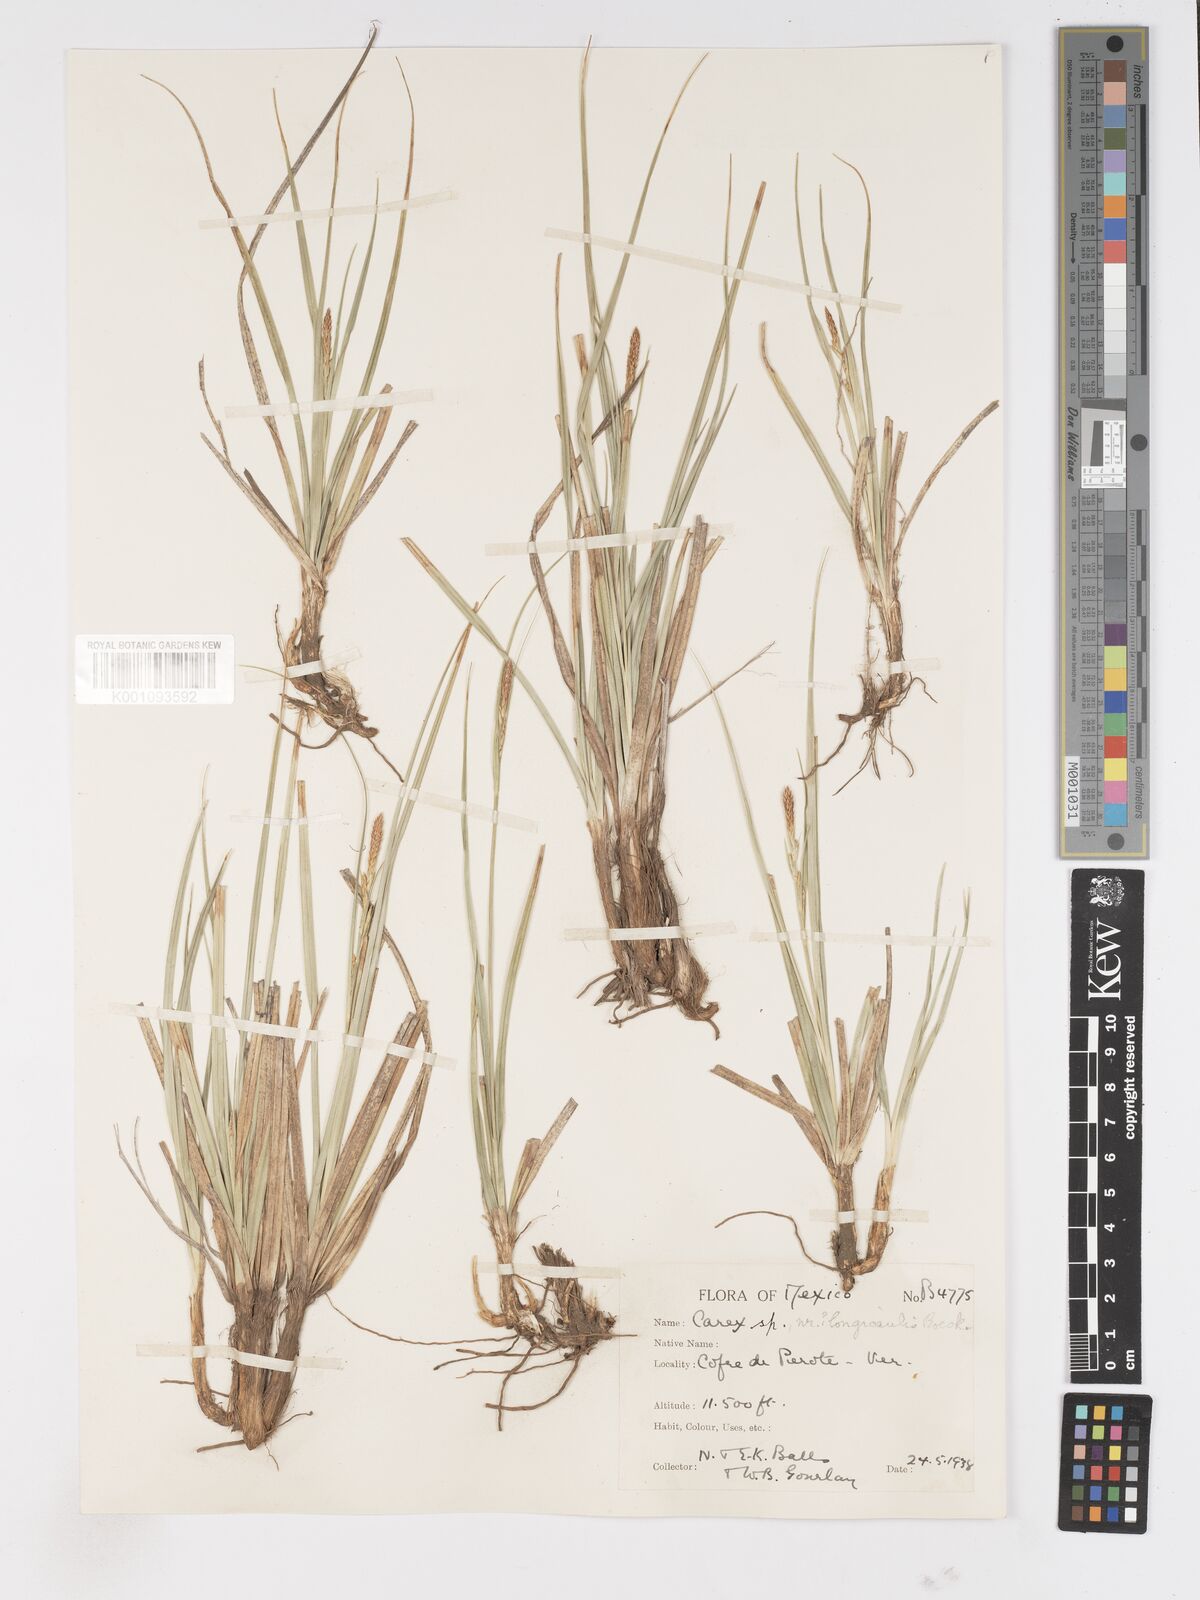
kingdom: Plantae
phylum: Tracheophyta
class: Liliopsida
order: Poales
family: Cyperaceae
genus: Carex
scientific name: Carex longicaulis
